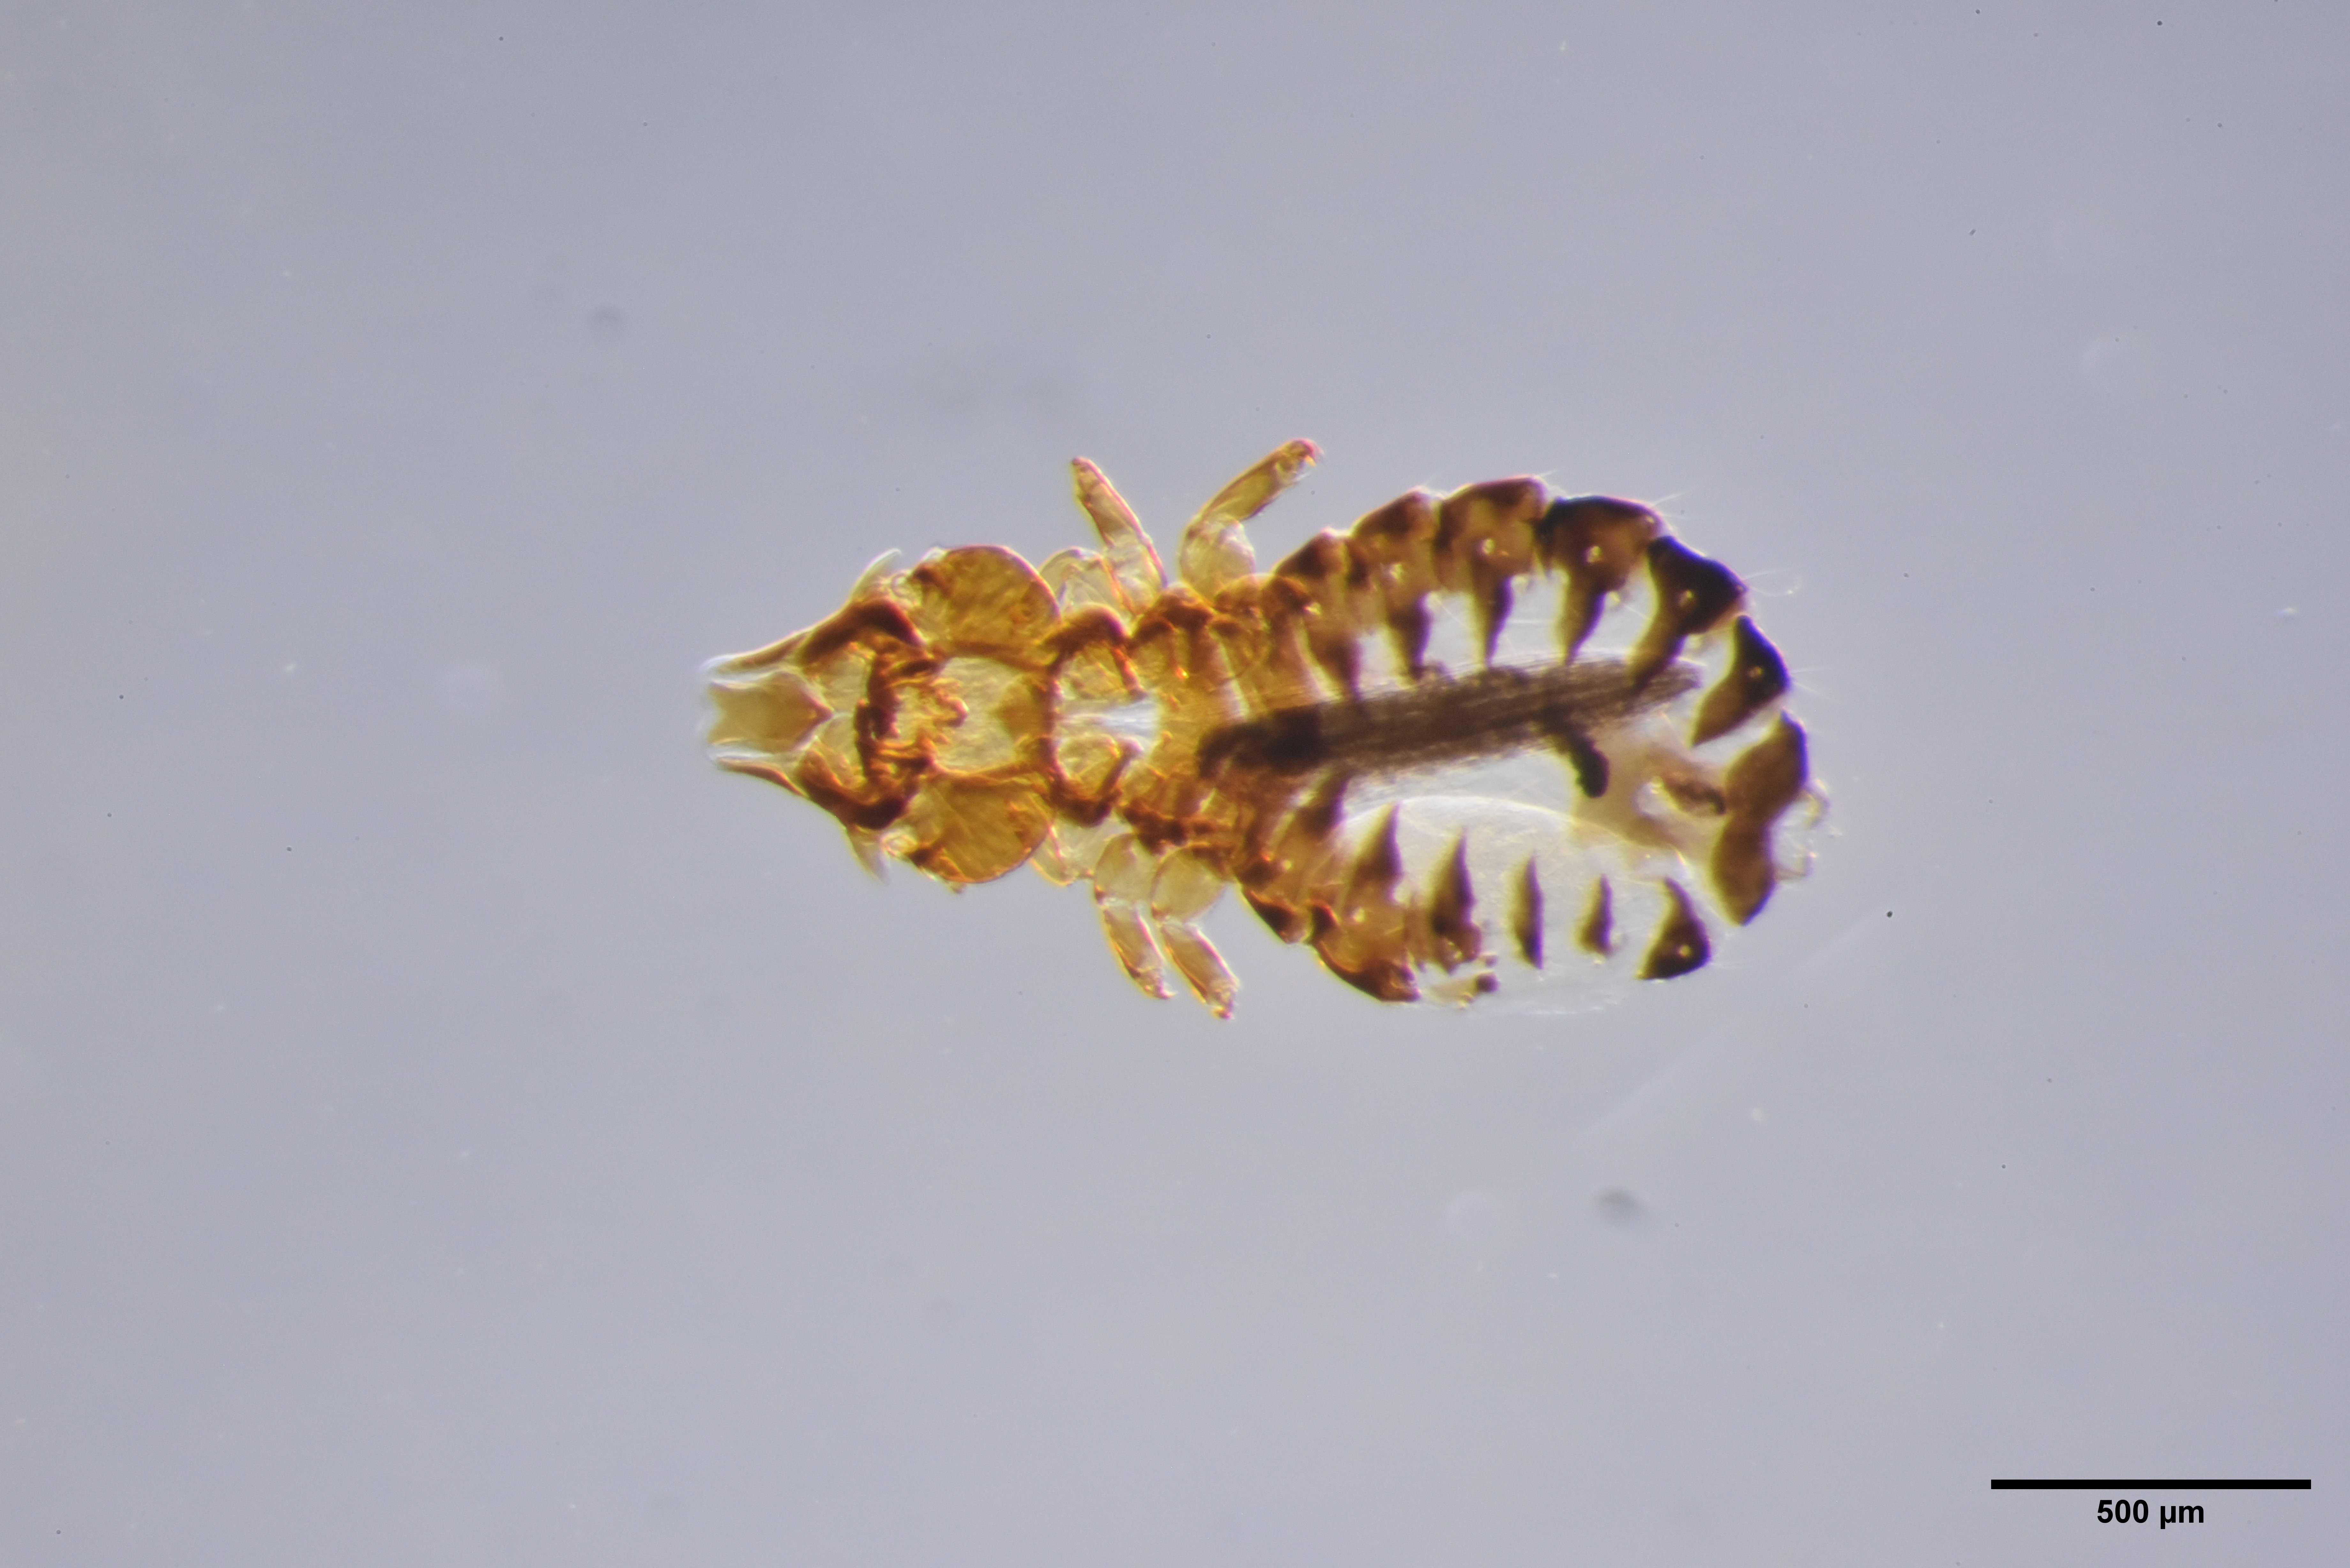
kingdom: Animalia
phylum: Arthropoda
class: Insecta
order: Psocodea
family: Philopteridae
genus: Saemundssonia
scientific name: Saemundssonia fraterculae
